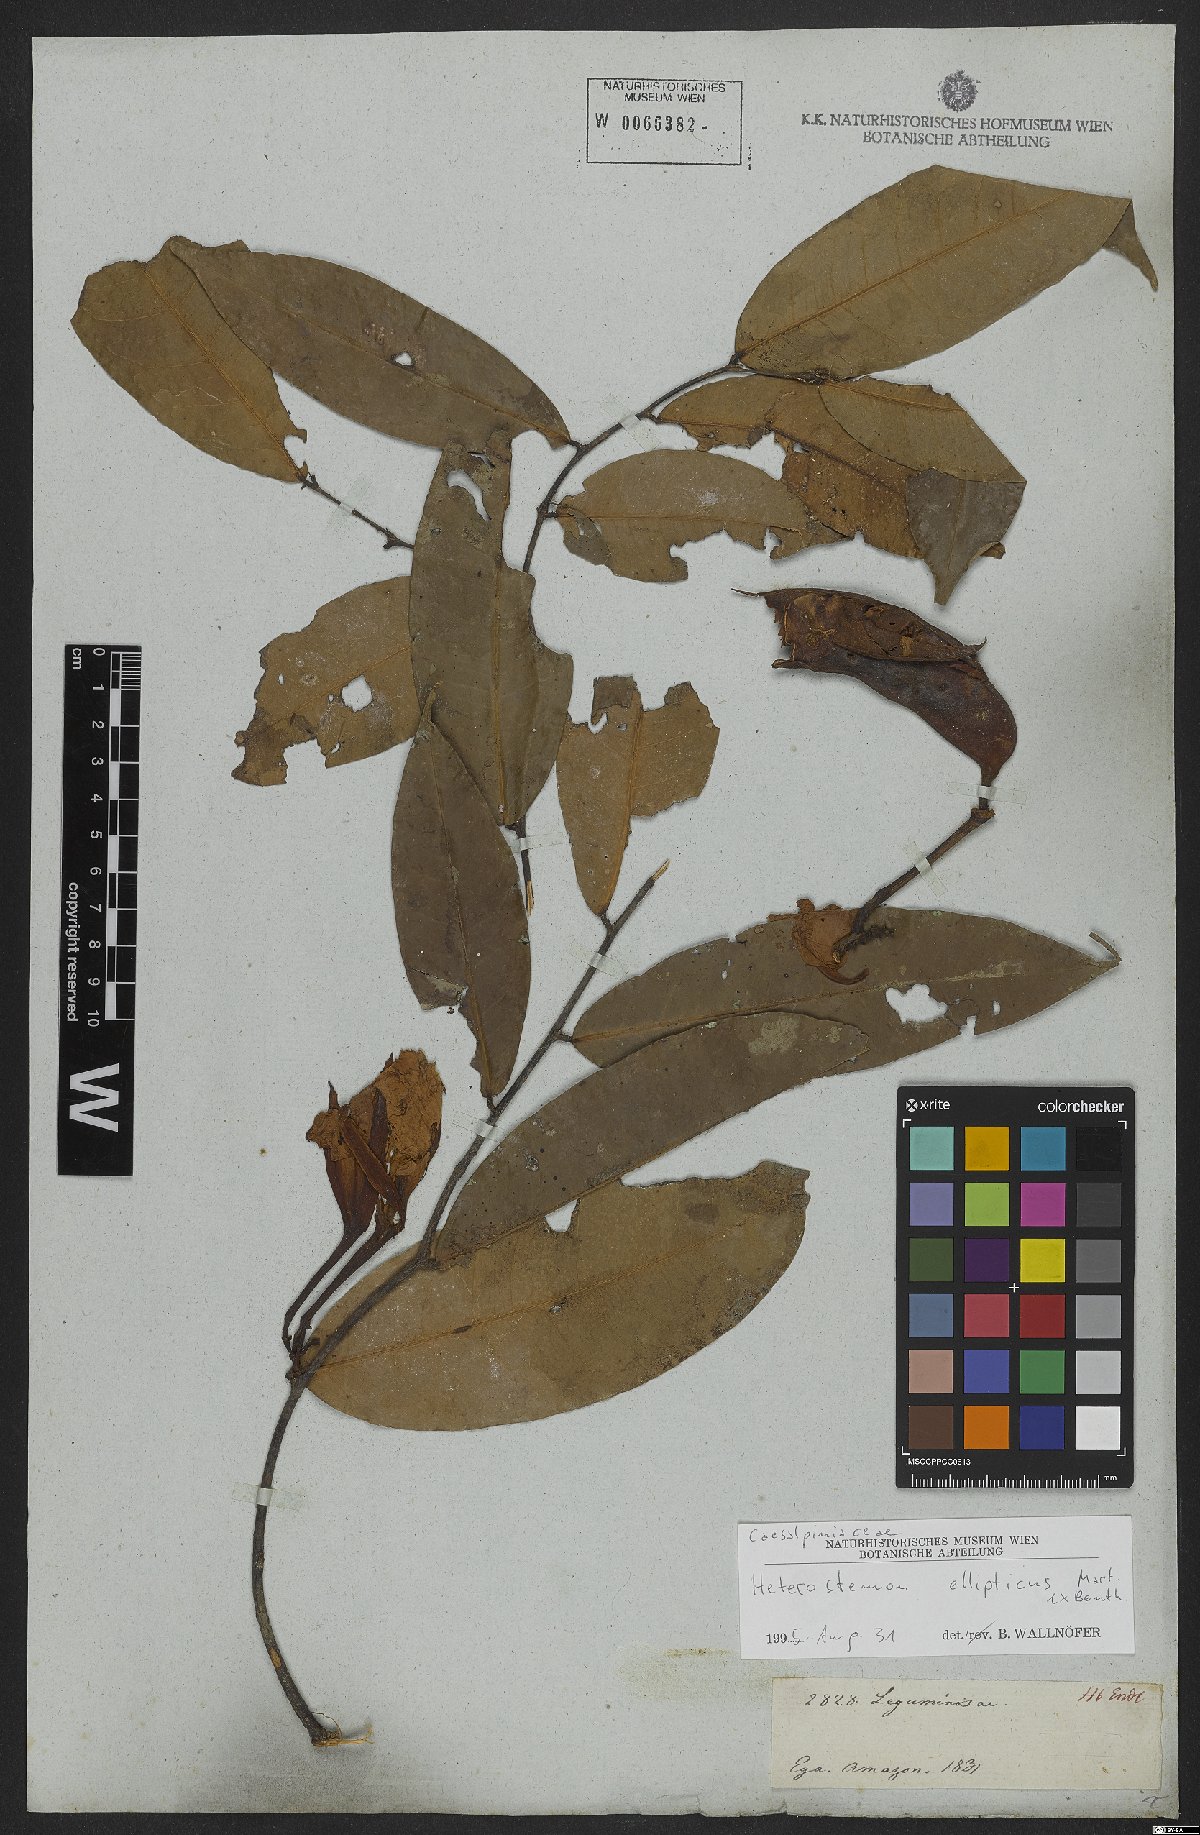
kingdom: Plantae
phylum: Tracheophyta
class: Magnoliopsida
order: Fabales
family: Fabaceae
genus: Heterostemon
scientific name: Heterostemon ellipticus
